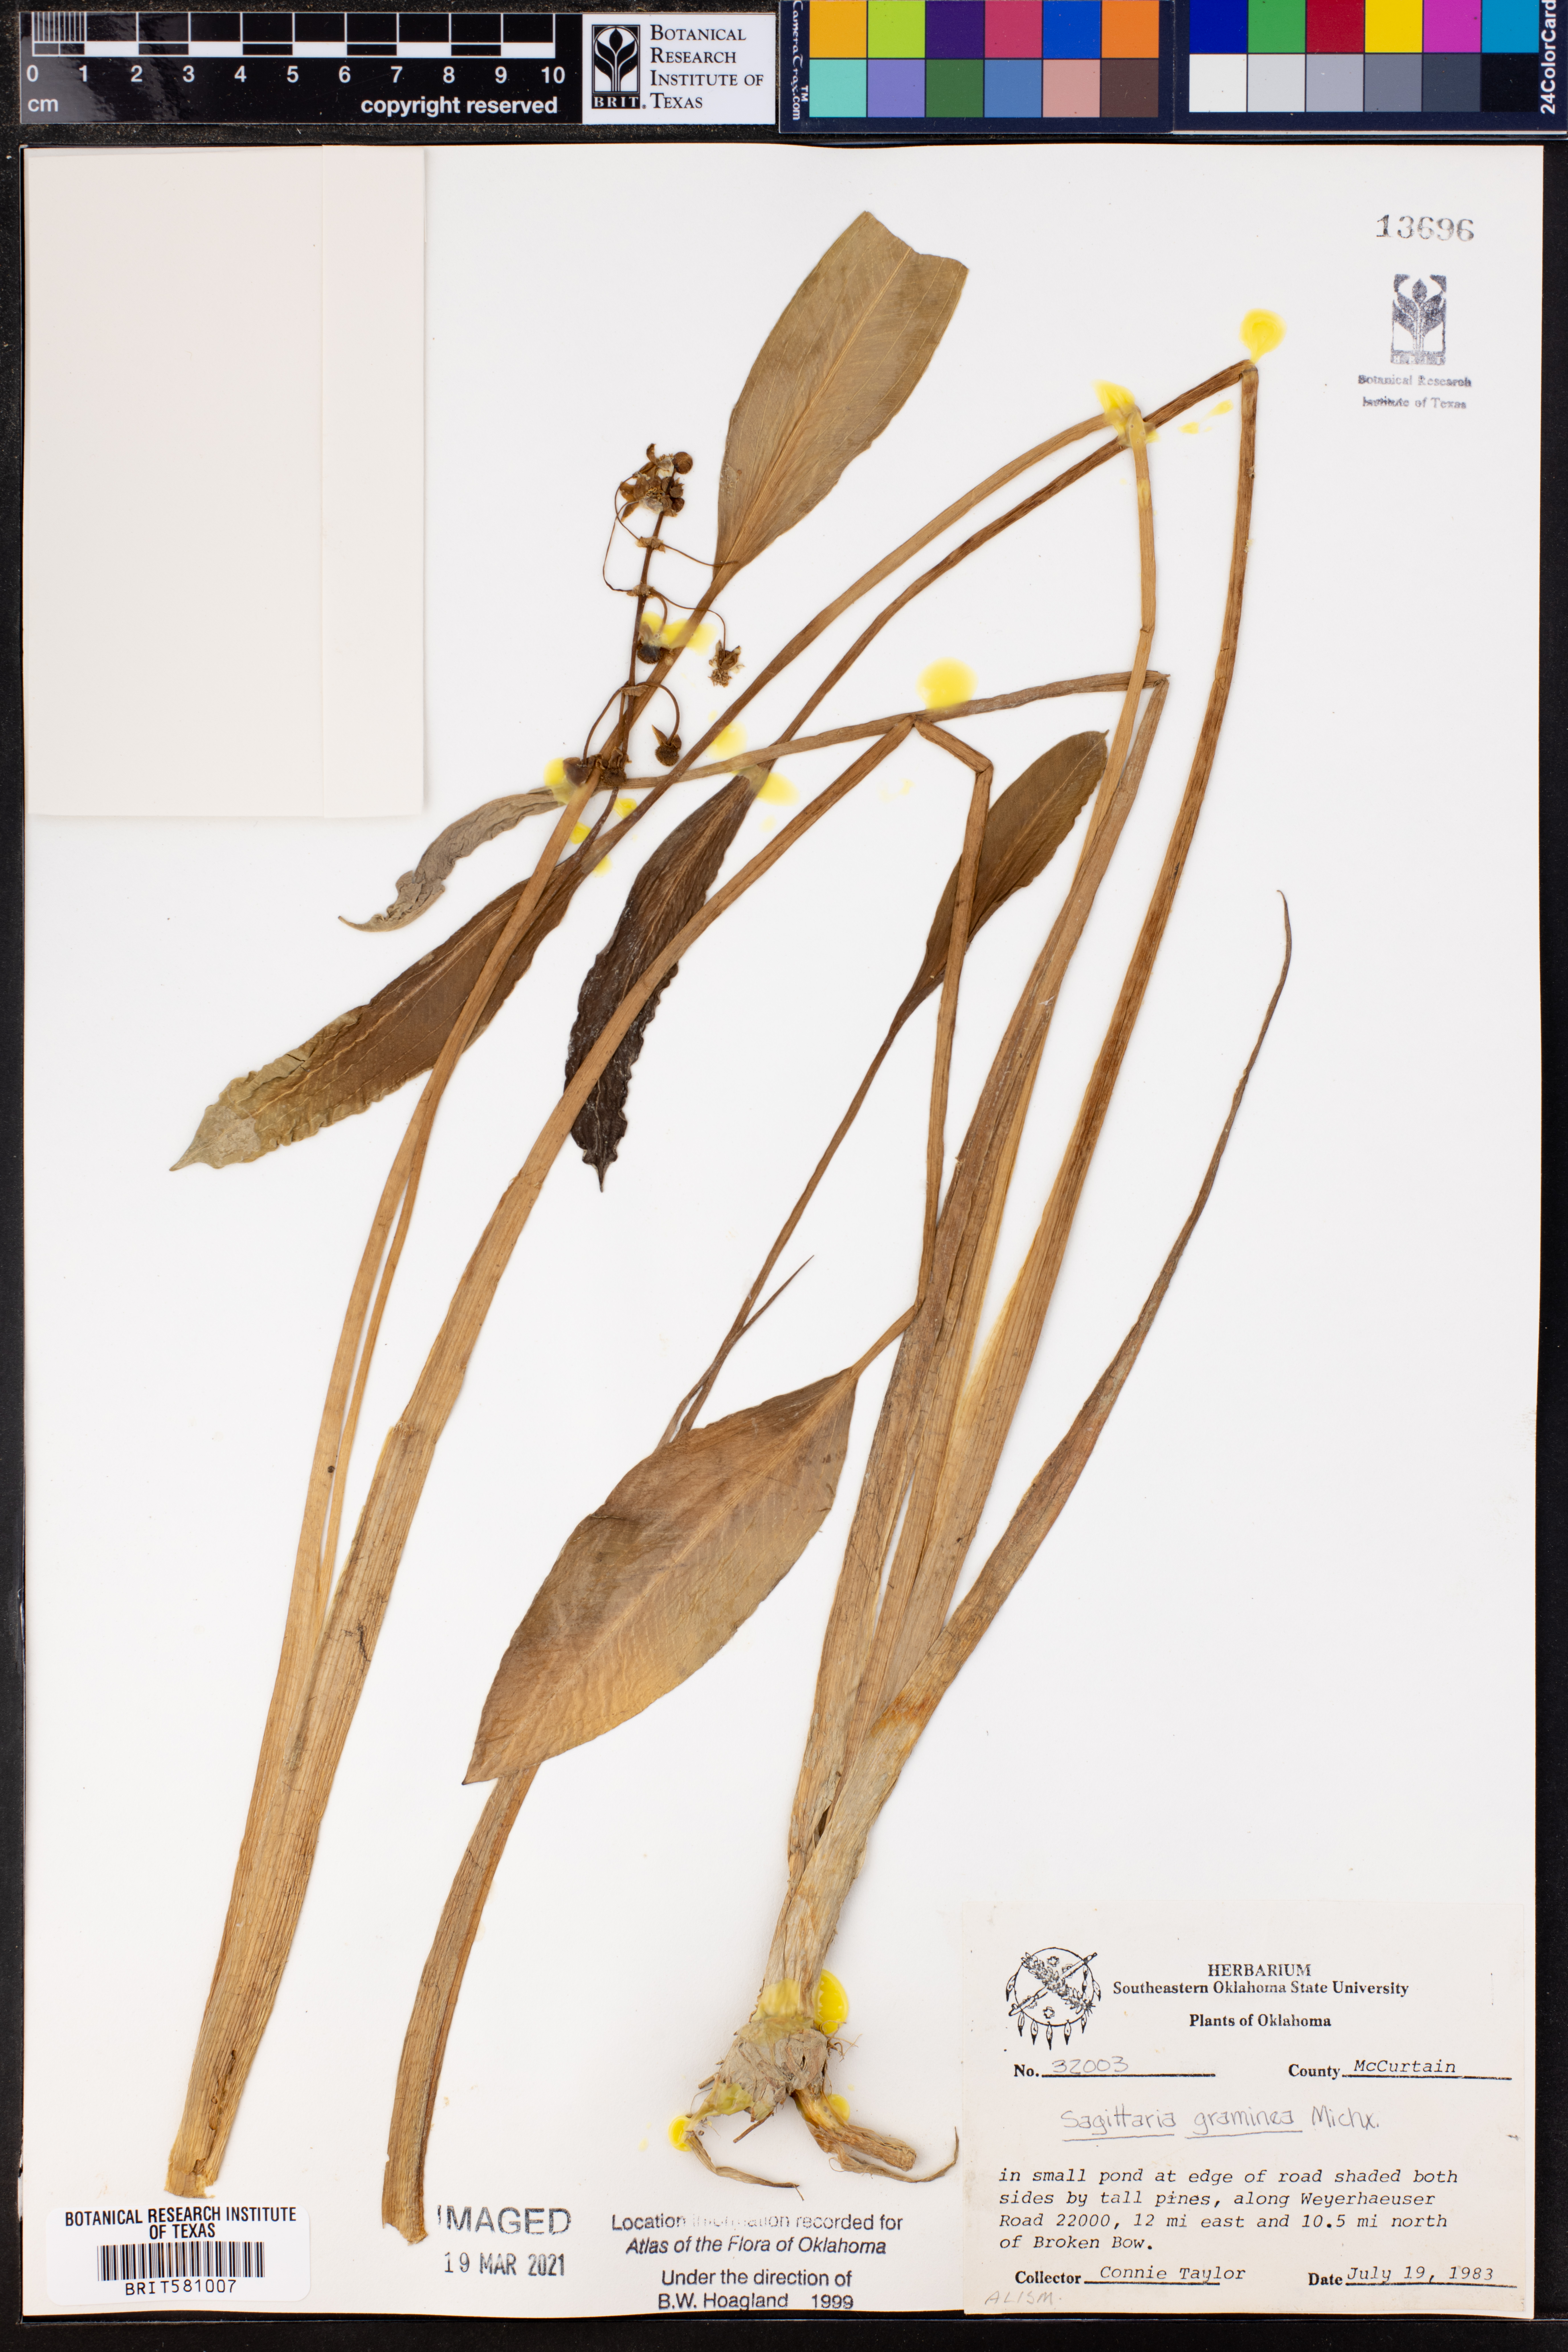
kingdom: Plantae
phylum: Tracheophyta
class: Liliopsida
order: Alismatales
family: Alismataceae
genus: Sagittaria
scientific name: Sagittaria graminea
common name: Grass-leaved arrowhead
